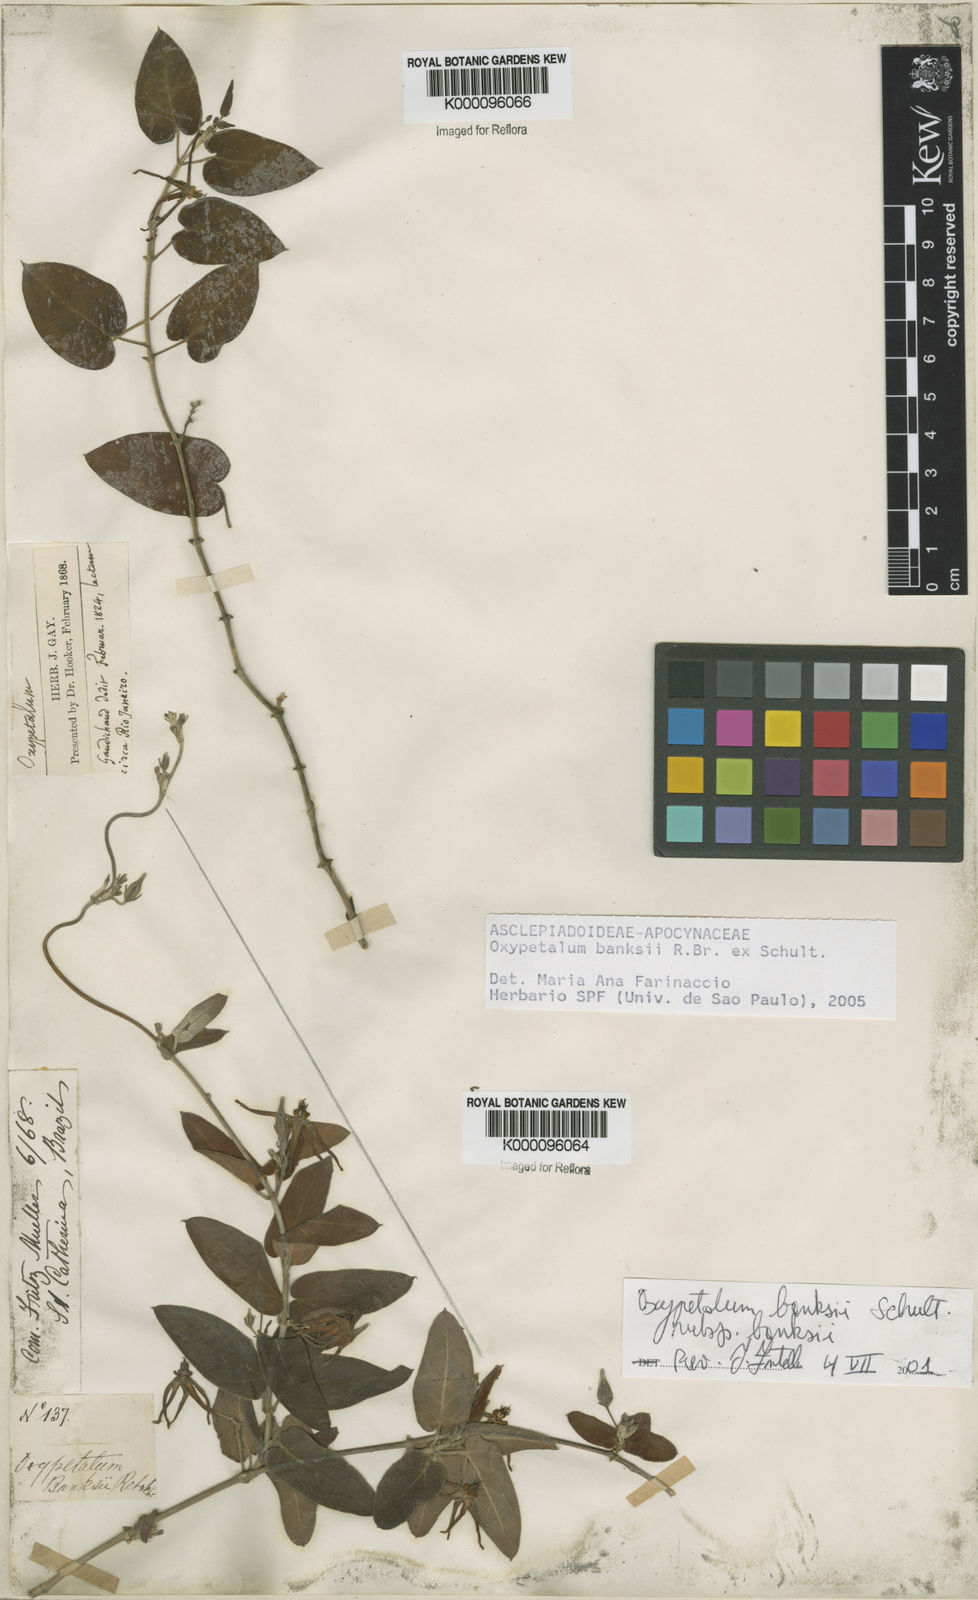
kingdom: Plantae
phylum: Tracheophyta
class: Magnoliopsida
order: Gentianales
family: Apocynaceae
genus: Oxypetalum
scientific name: Oxypetalum banksii
